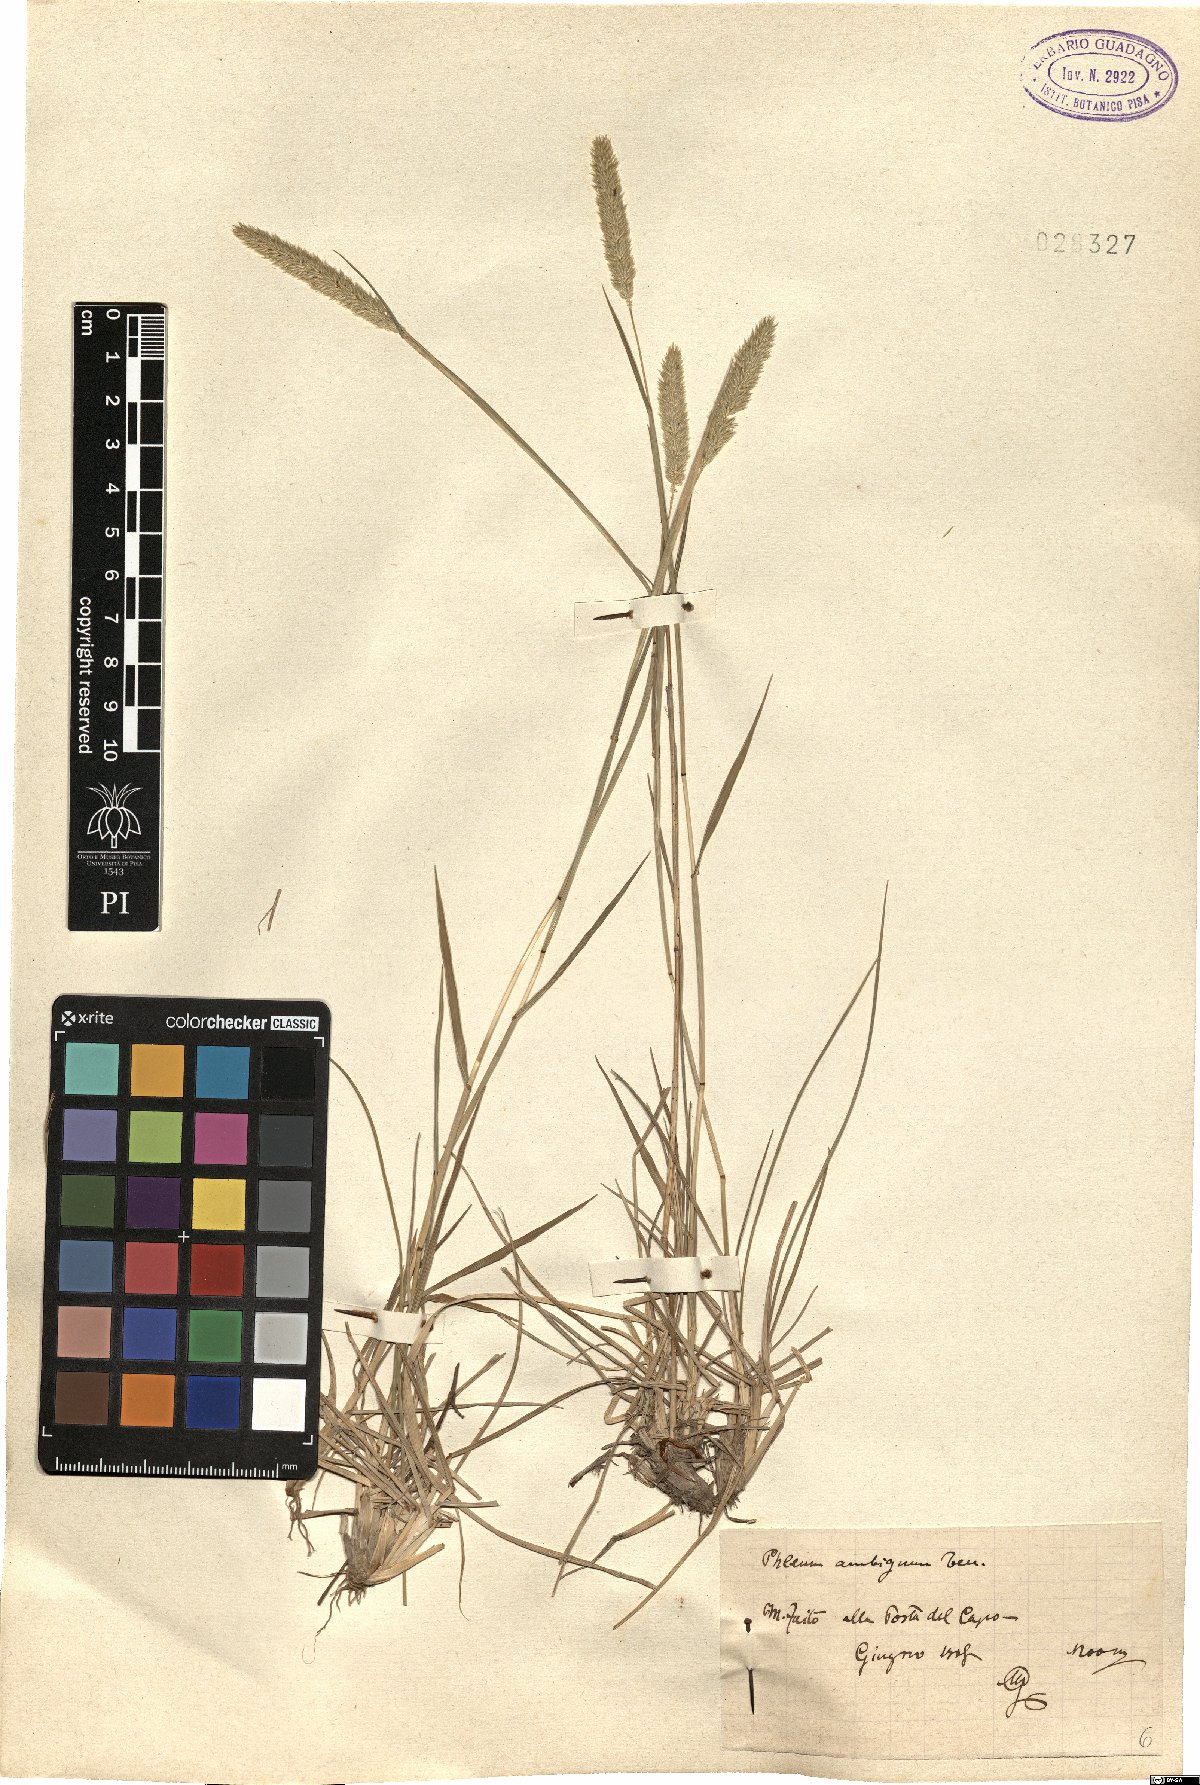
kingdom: Plantae
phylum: Tracheophyta
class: Liliopsida
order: Poales
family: Poaceae
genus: Phleum
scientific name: Phleum hirsutum
